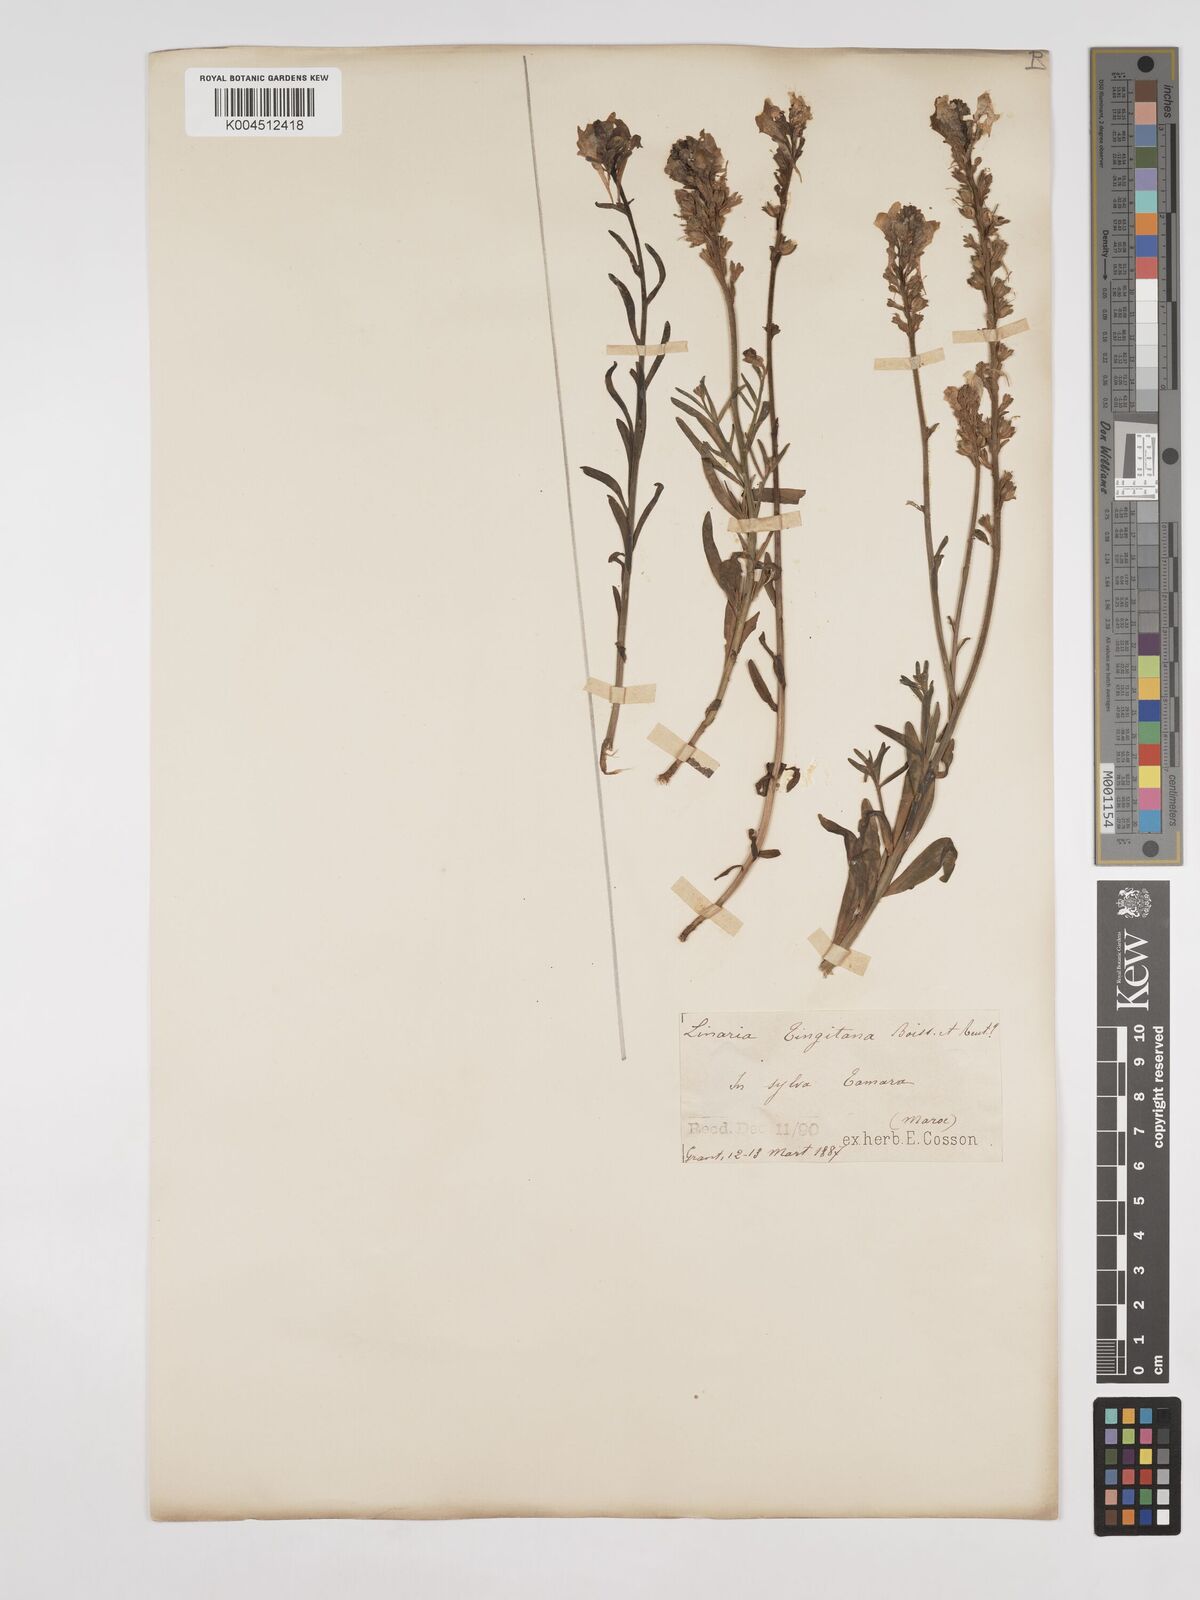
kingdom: Plantae
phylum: Tracheophyta
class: Magnoliopsida
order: Lamiales
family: Plantaginaceae
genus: Linaria
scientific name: Linaria multicaulis
